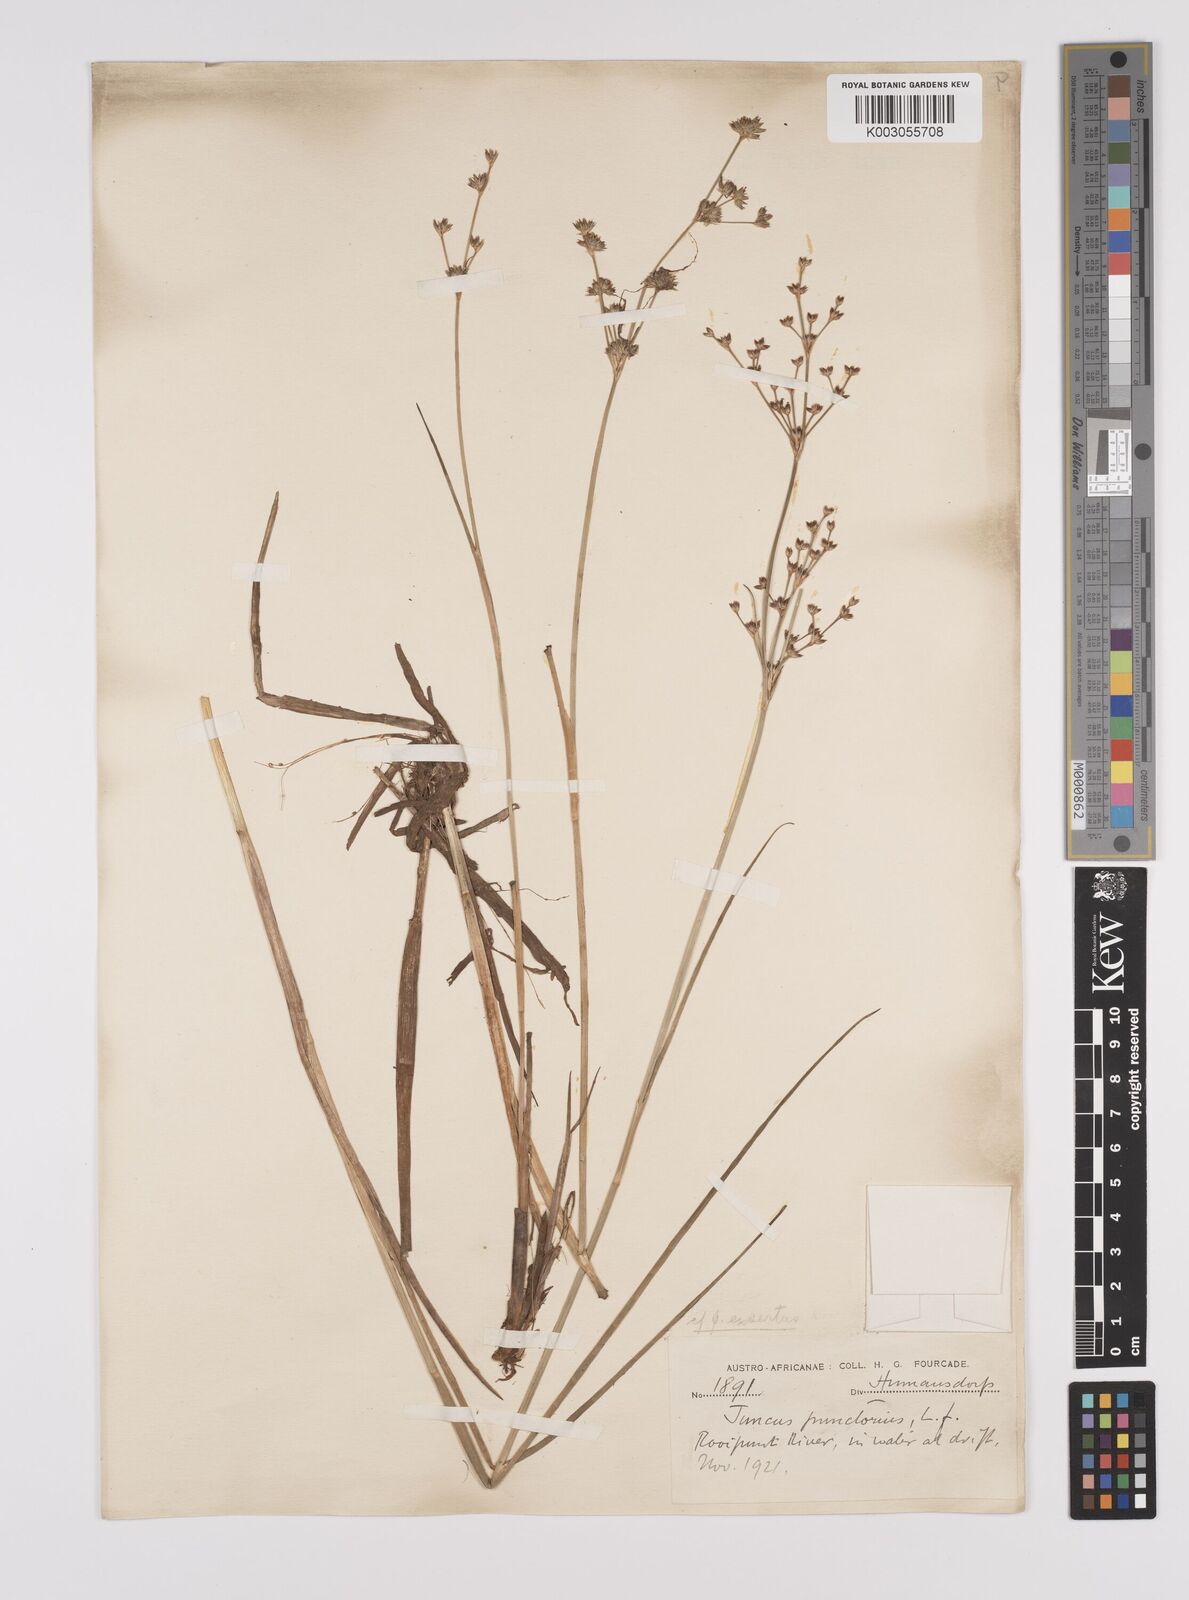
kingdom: Plantae
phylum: Tracheophyta
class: Liliopsida
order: Poales
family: Juncaceae
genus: Juncus
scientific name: Juncus oxycarpus
